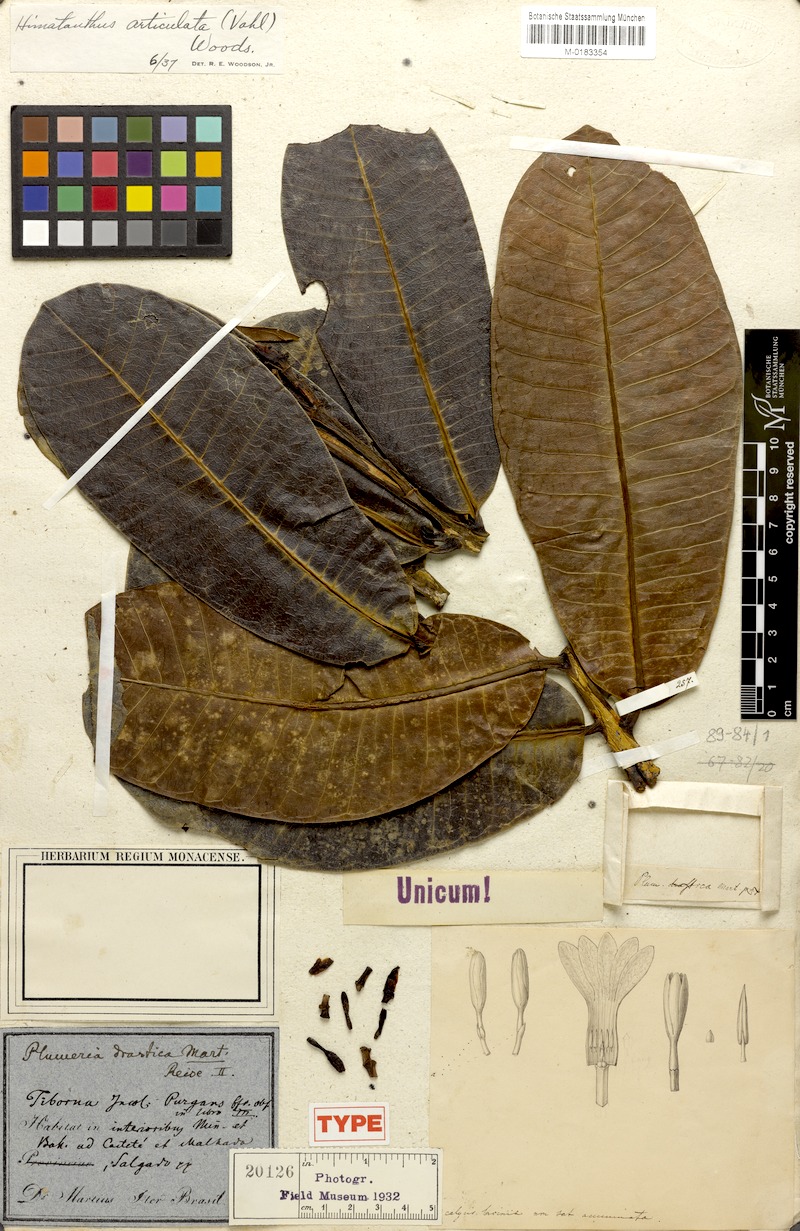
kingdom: Plantae
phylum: Tracheophyta
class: Magnoliopsida
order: Gentianales
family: Apocynaceae
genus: Himatanthus
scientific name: Himatanthus drasticus
